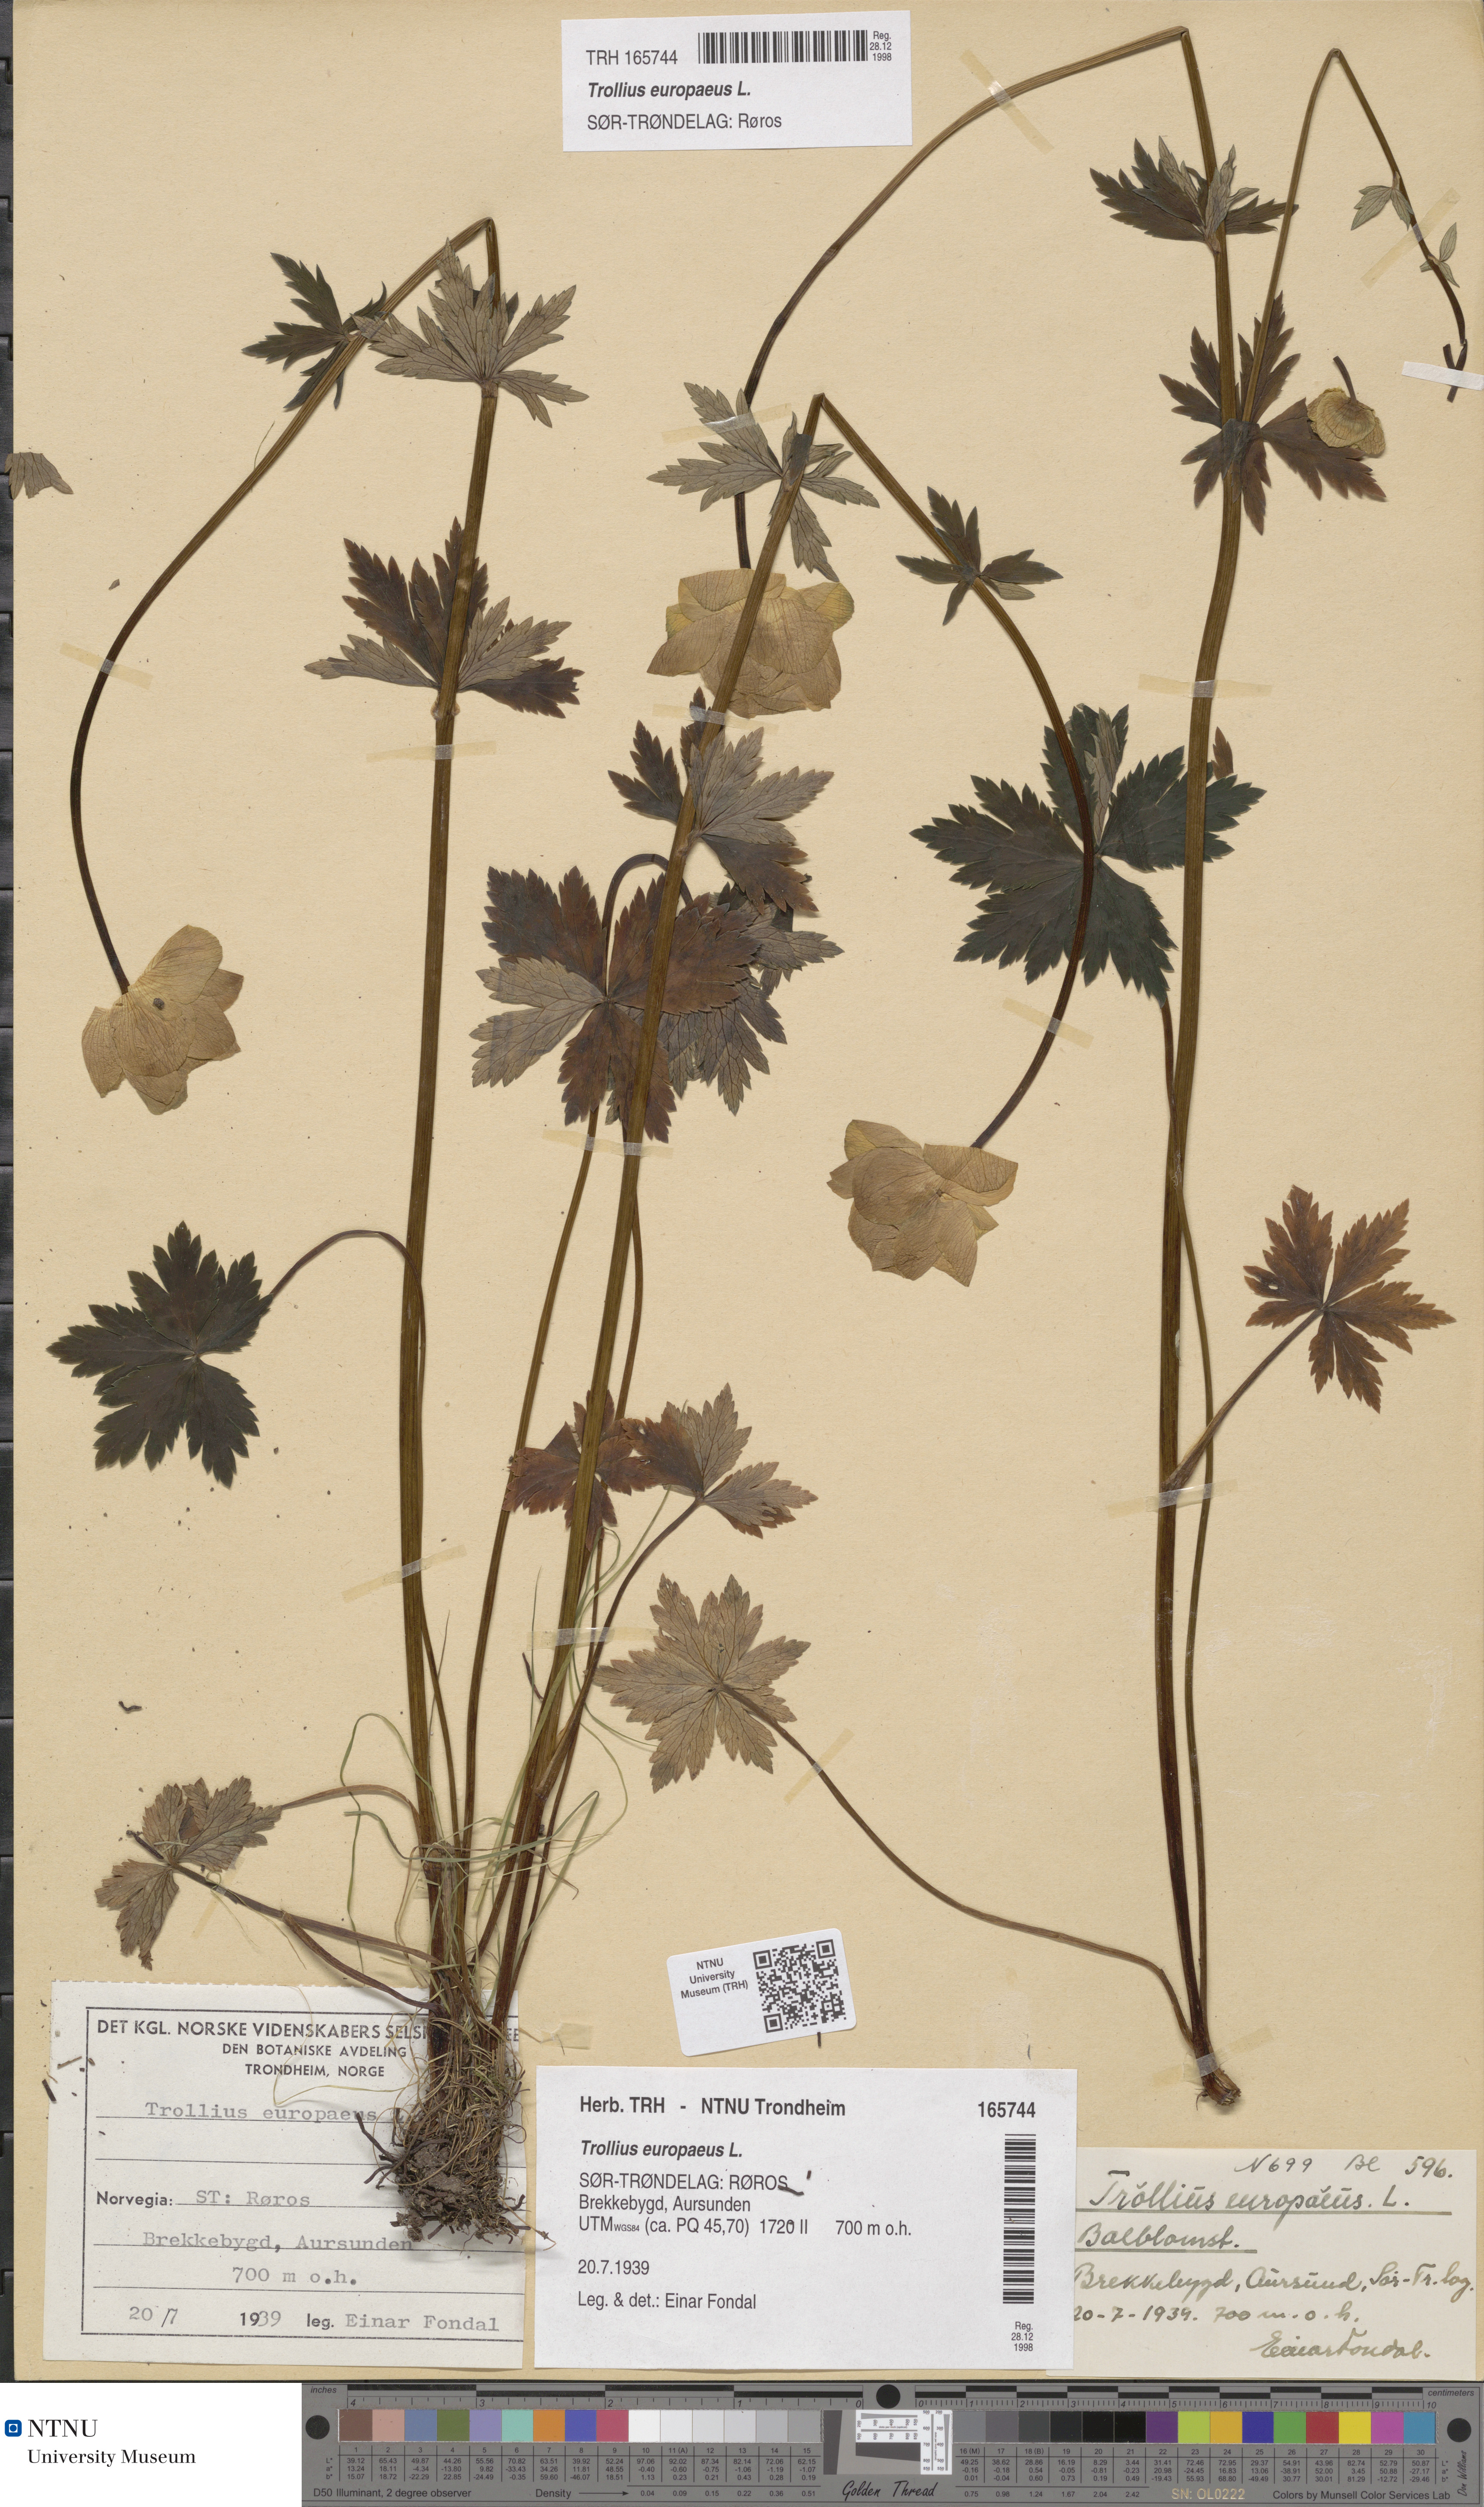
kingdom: Plantae
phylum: Tracheophyta
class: Magnoliopsida
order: Ranunculales
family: Ranunculaceae
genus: Trollius
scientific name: Trollius europaeus
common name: European globeflower
